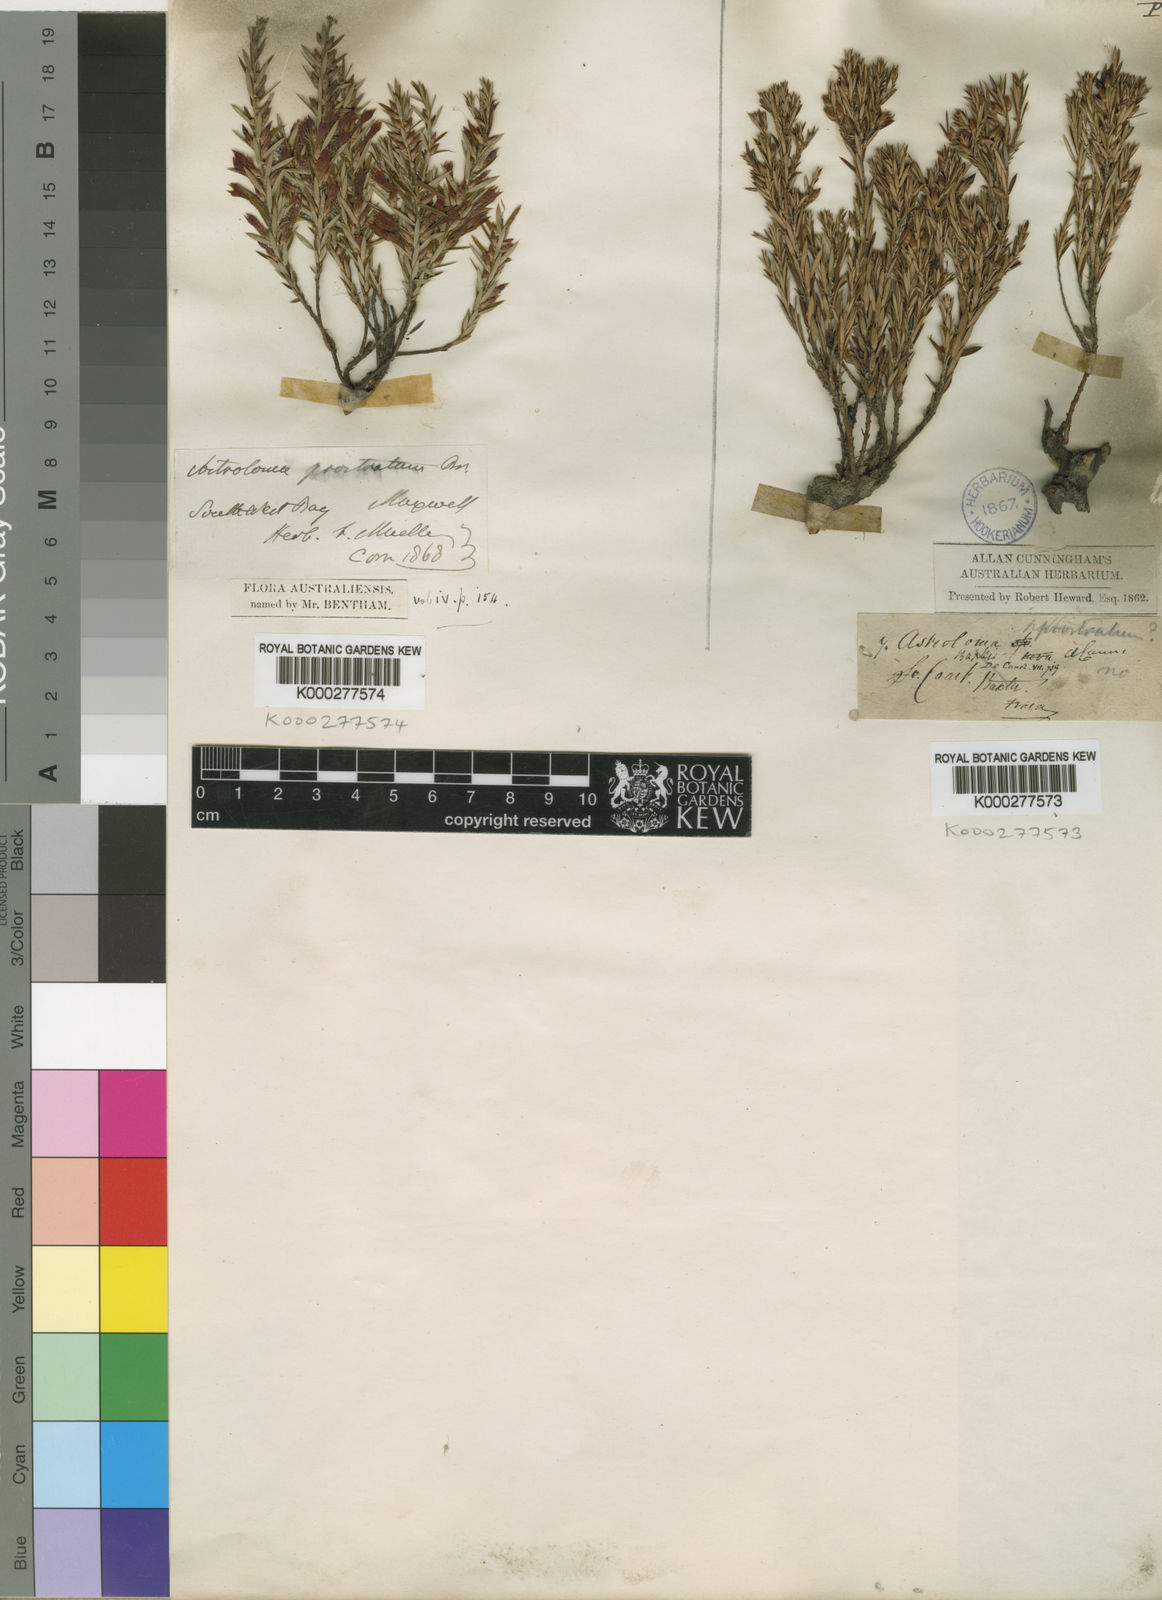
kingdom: Plantae
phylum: Tracheophyta
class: Magnoliopsida
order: Ericales
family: Ericaceae
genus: Styphelia
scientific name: Styphelia prostrata
